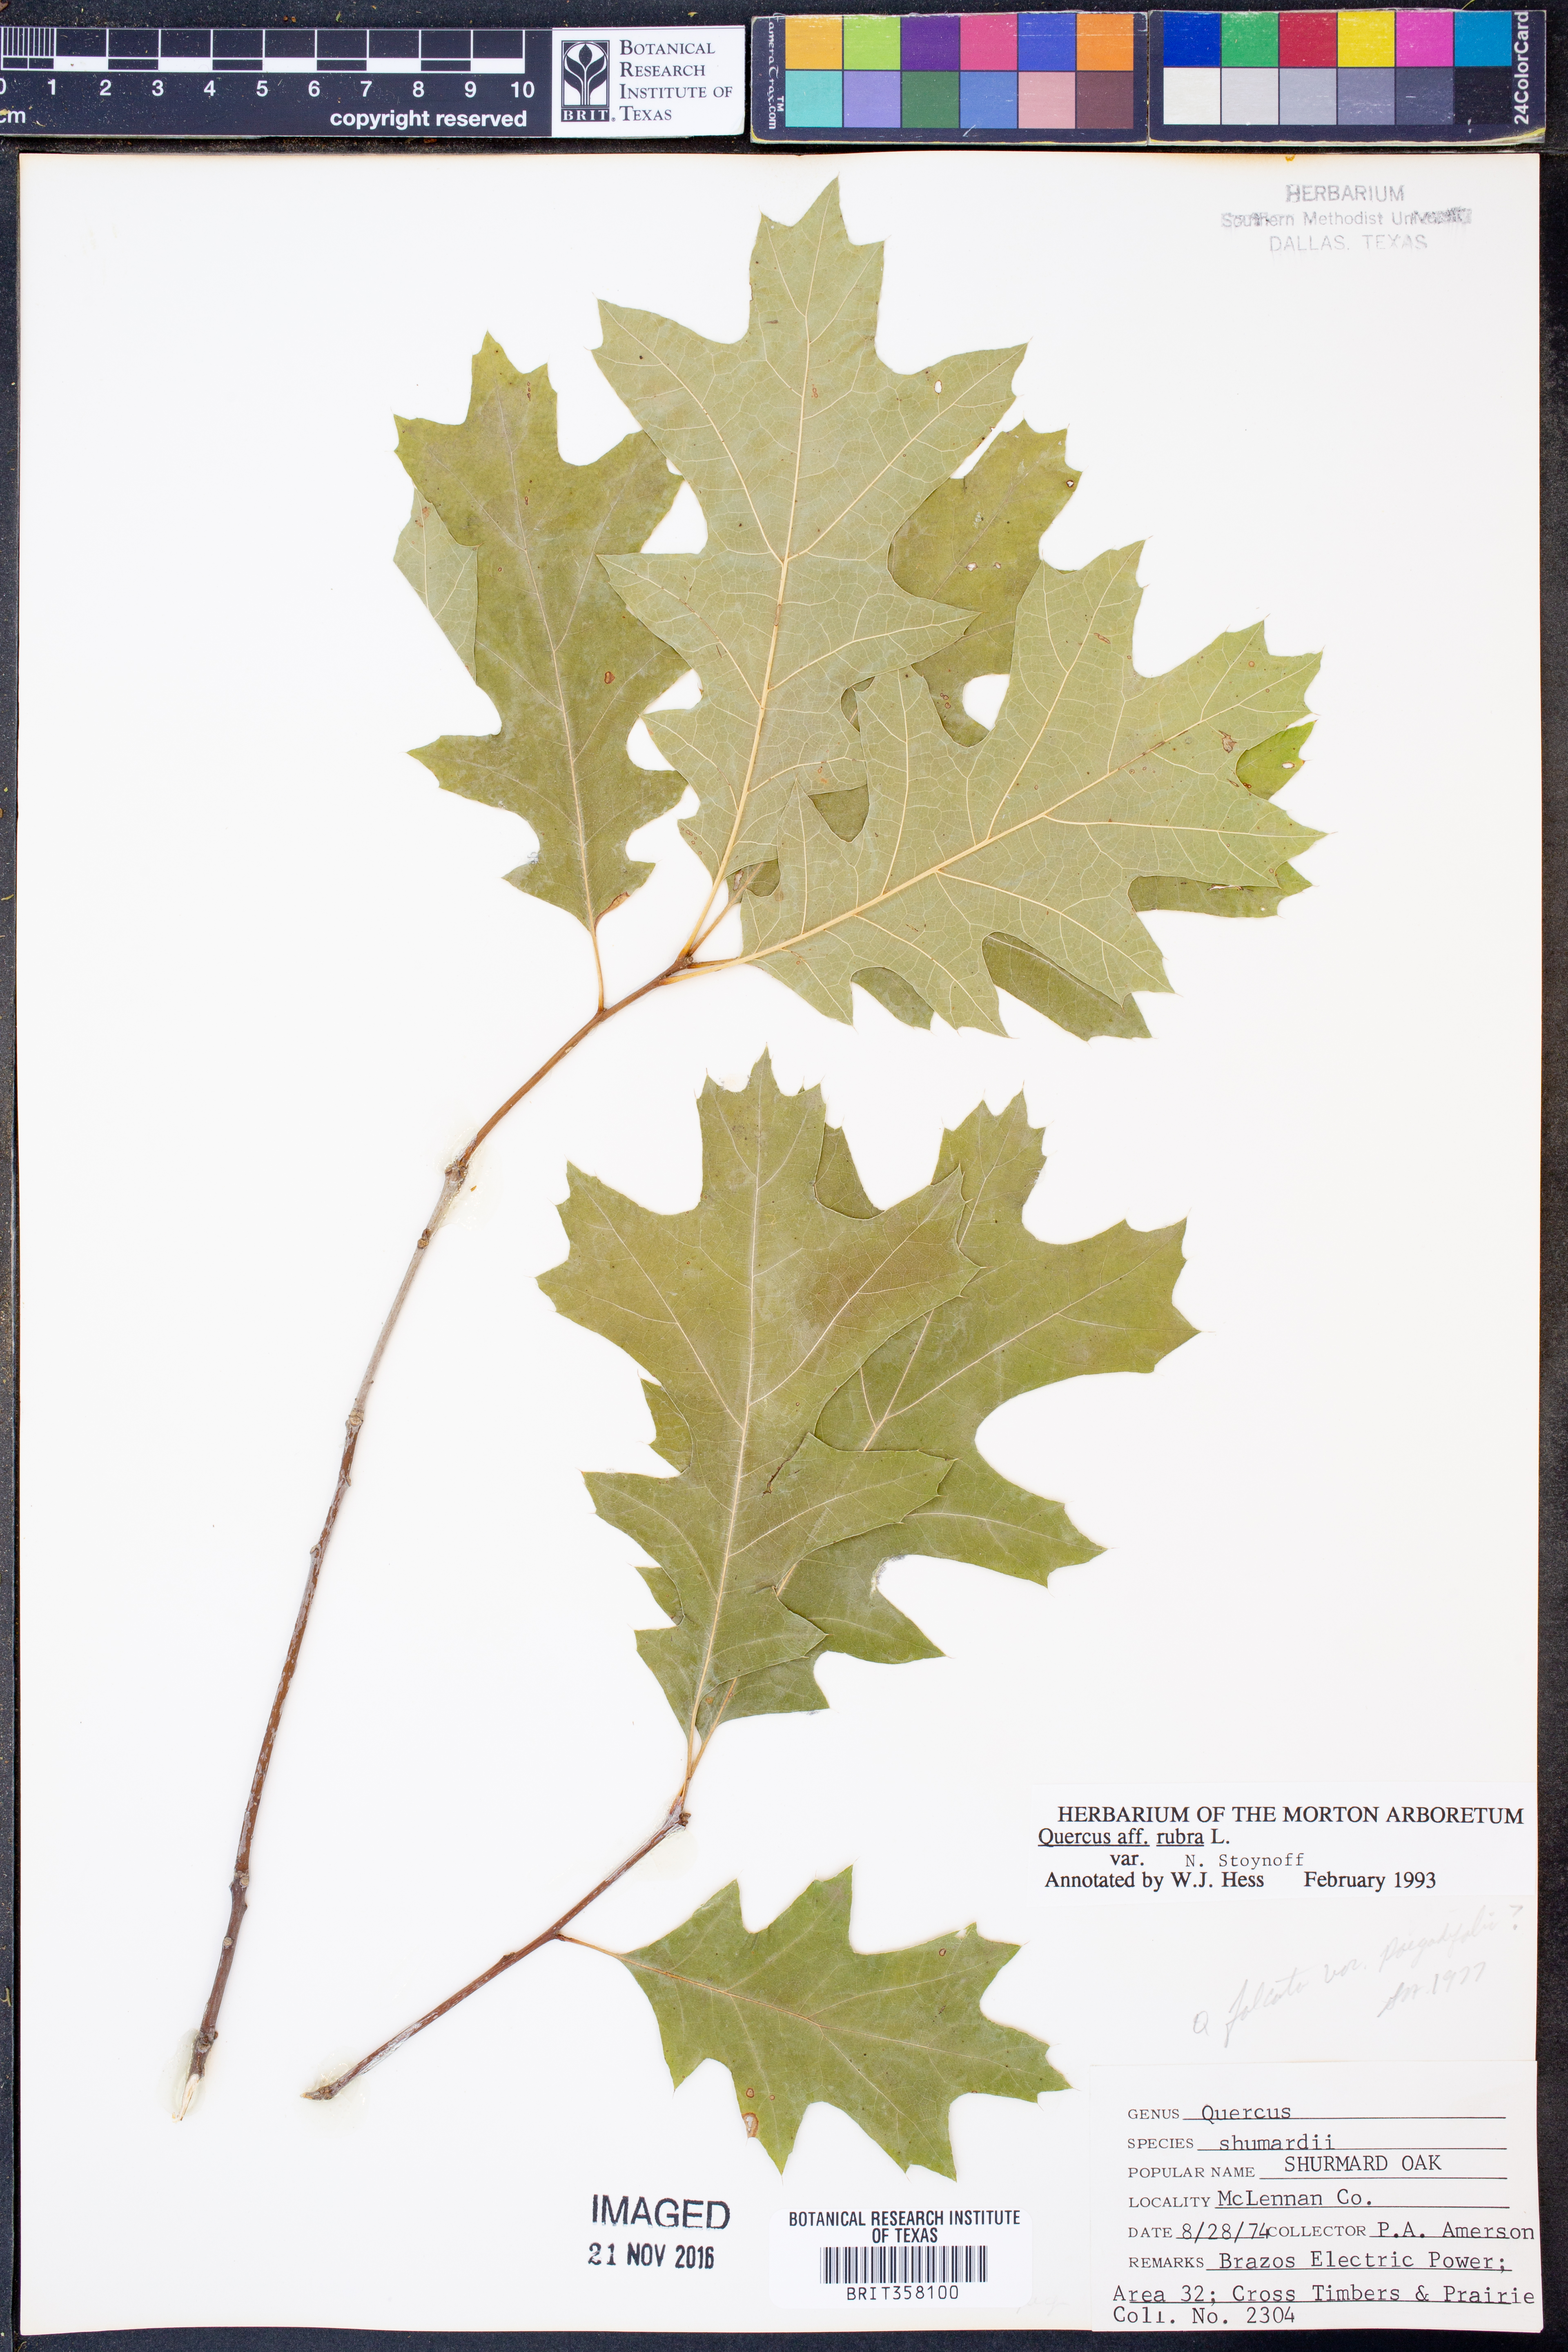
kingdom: Plantae
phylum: Tracheophyta
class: Magnoliopsida
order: Fagales
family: Fagaceae
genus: Quercus
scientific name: Quercus rubra
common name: Red oak
